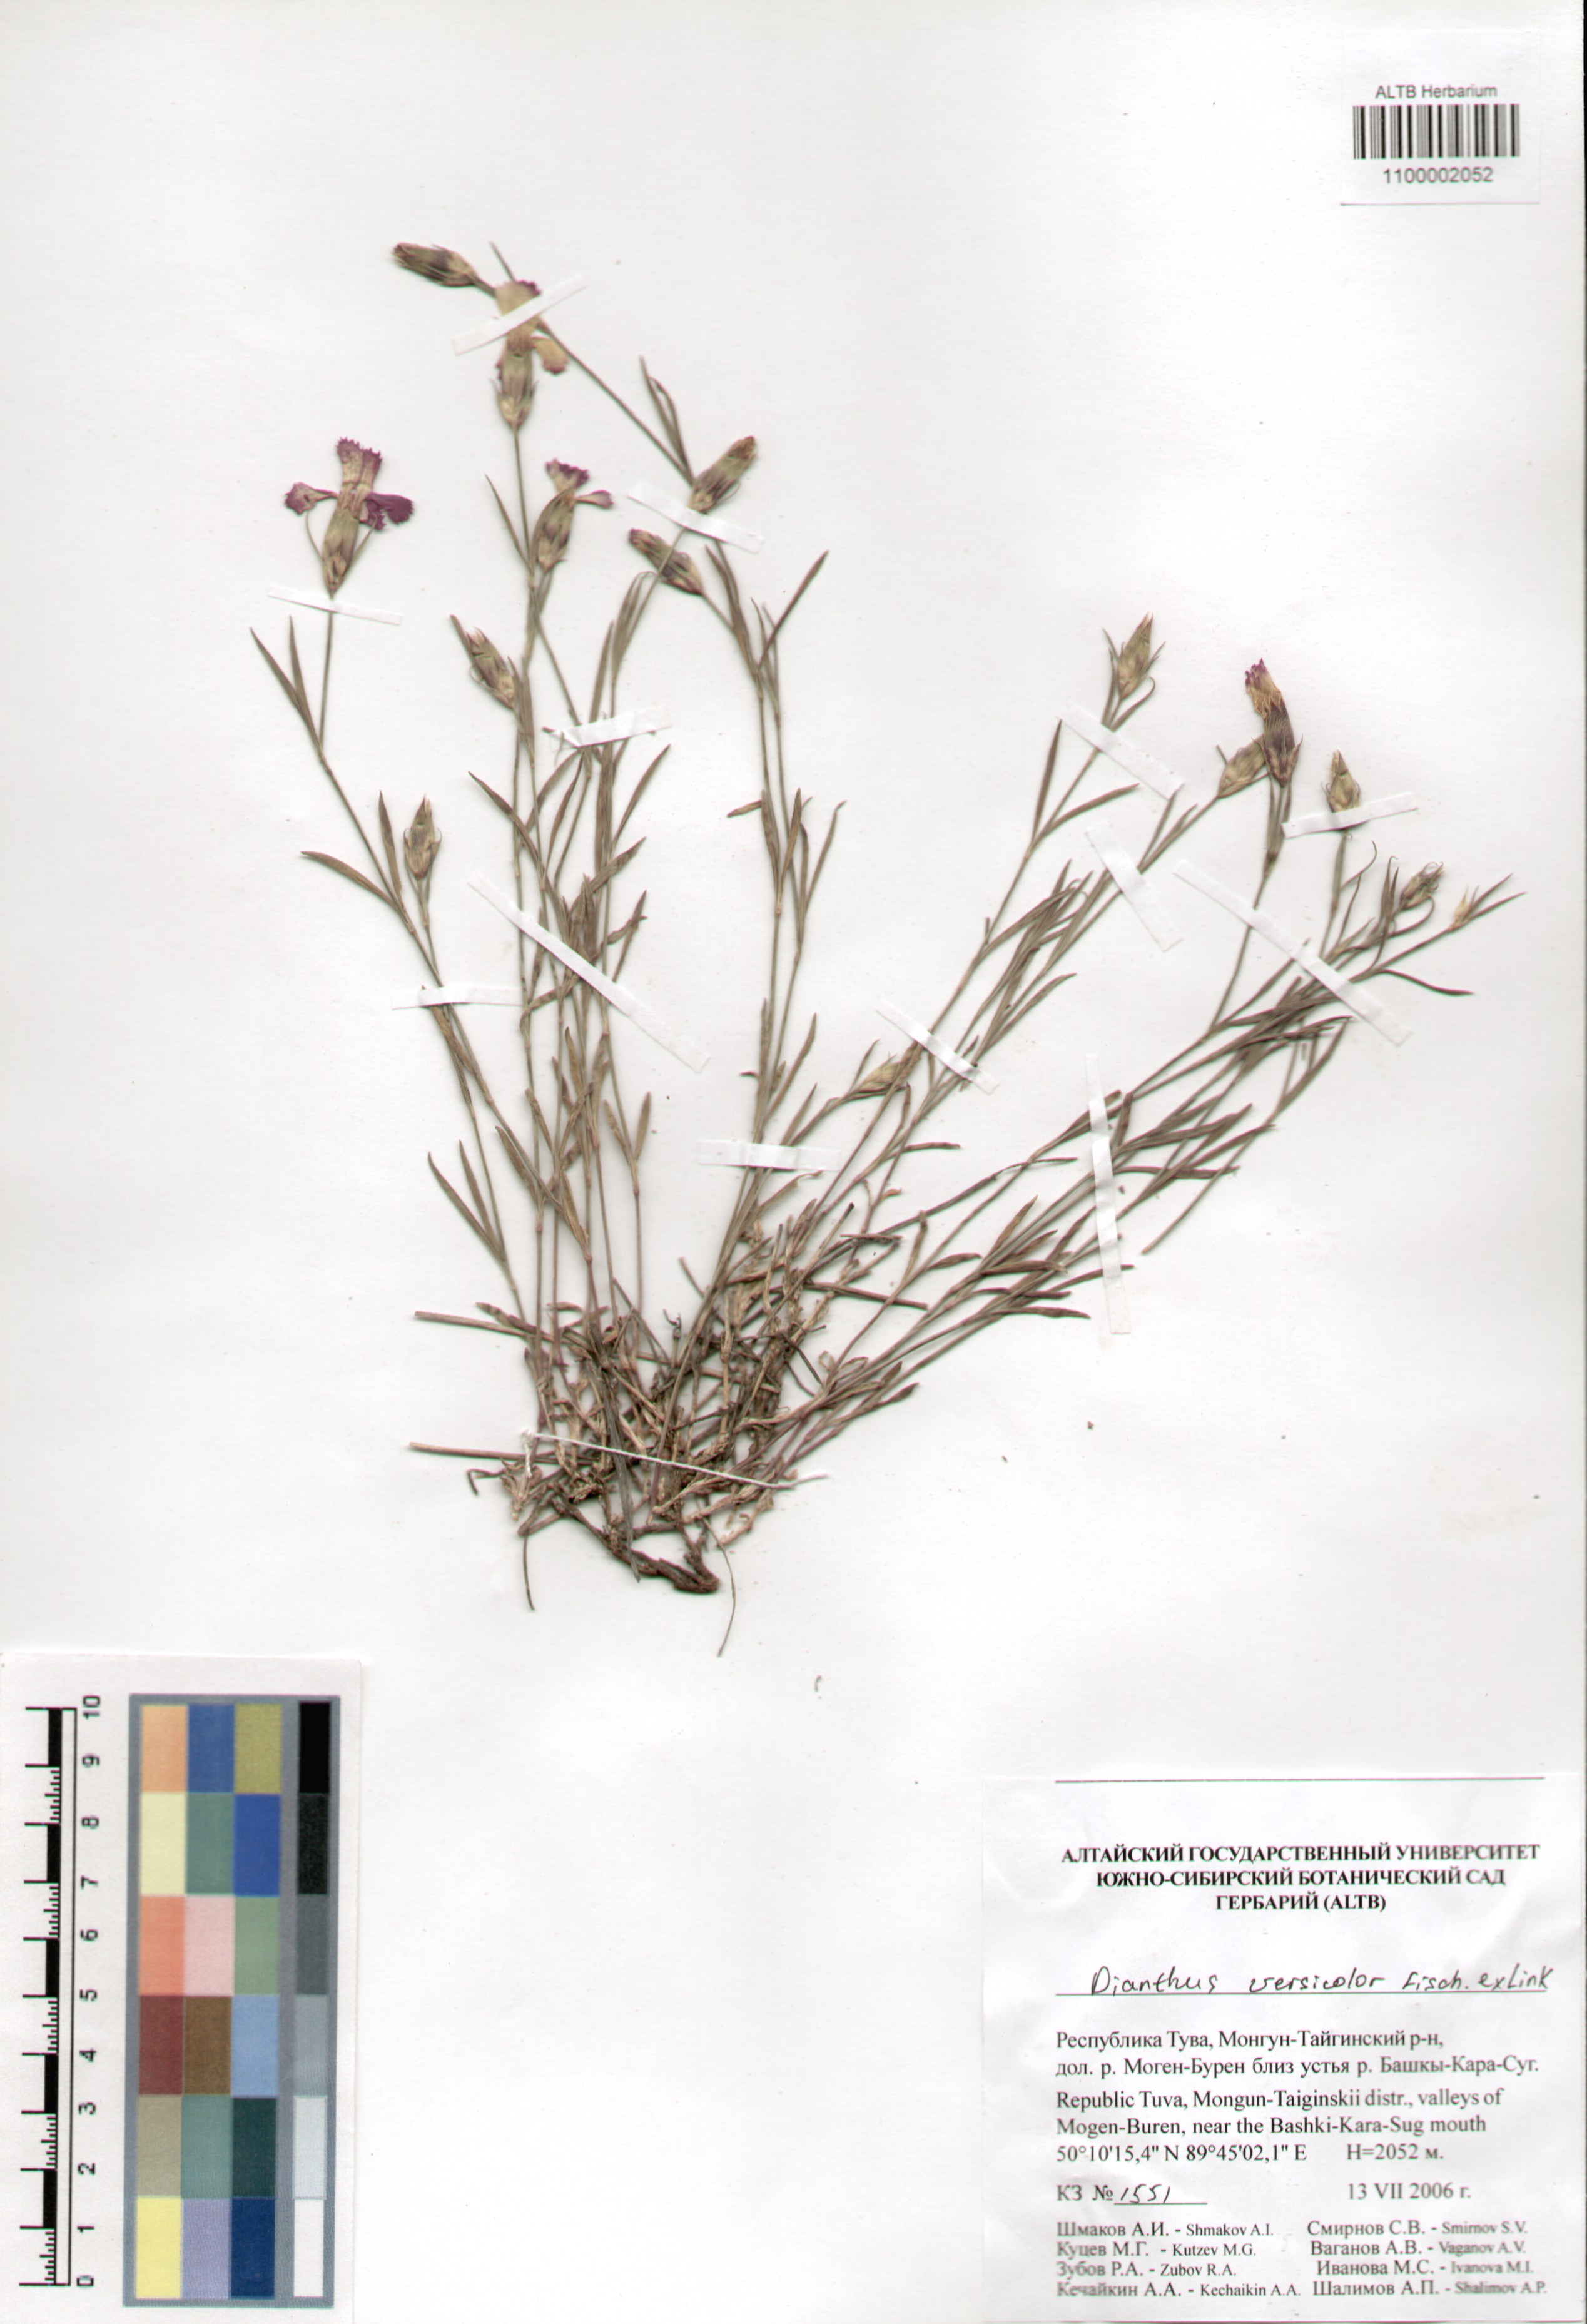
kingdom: Plantae
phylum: Tracheophyta
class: Magnoliopsida
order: Caryophyllales
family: Caryophyllaceae
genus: Dianthus
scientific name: Dianthus chinensis
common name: Rainbow pink
